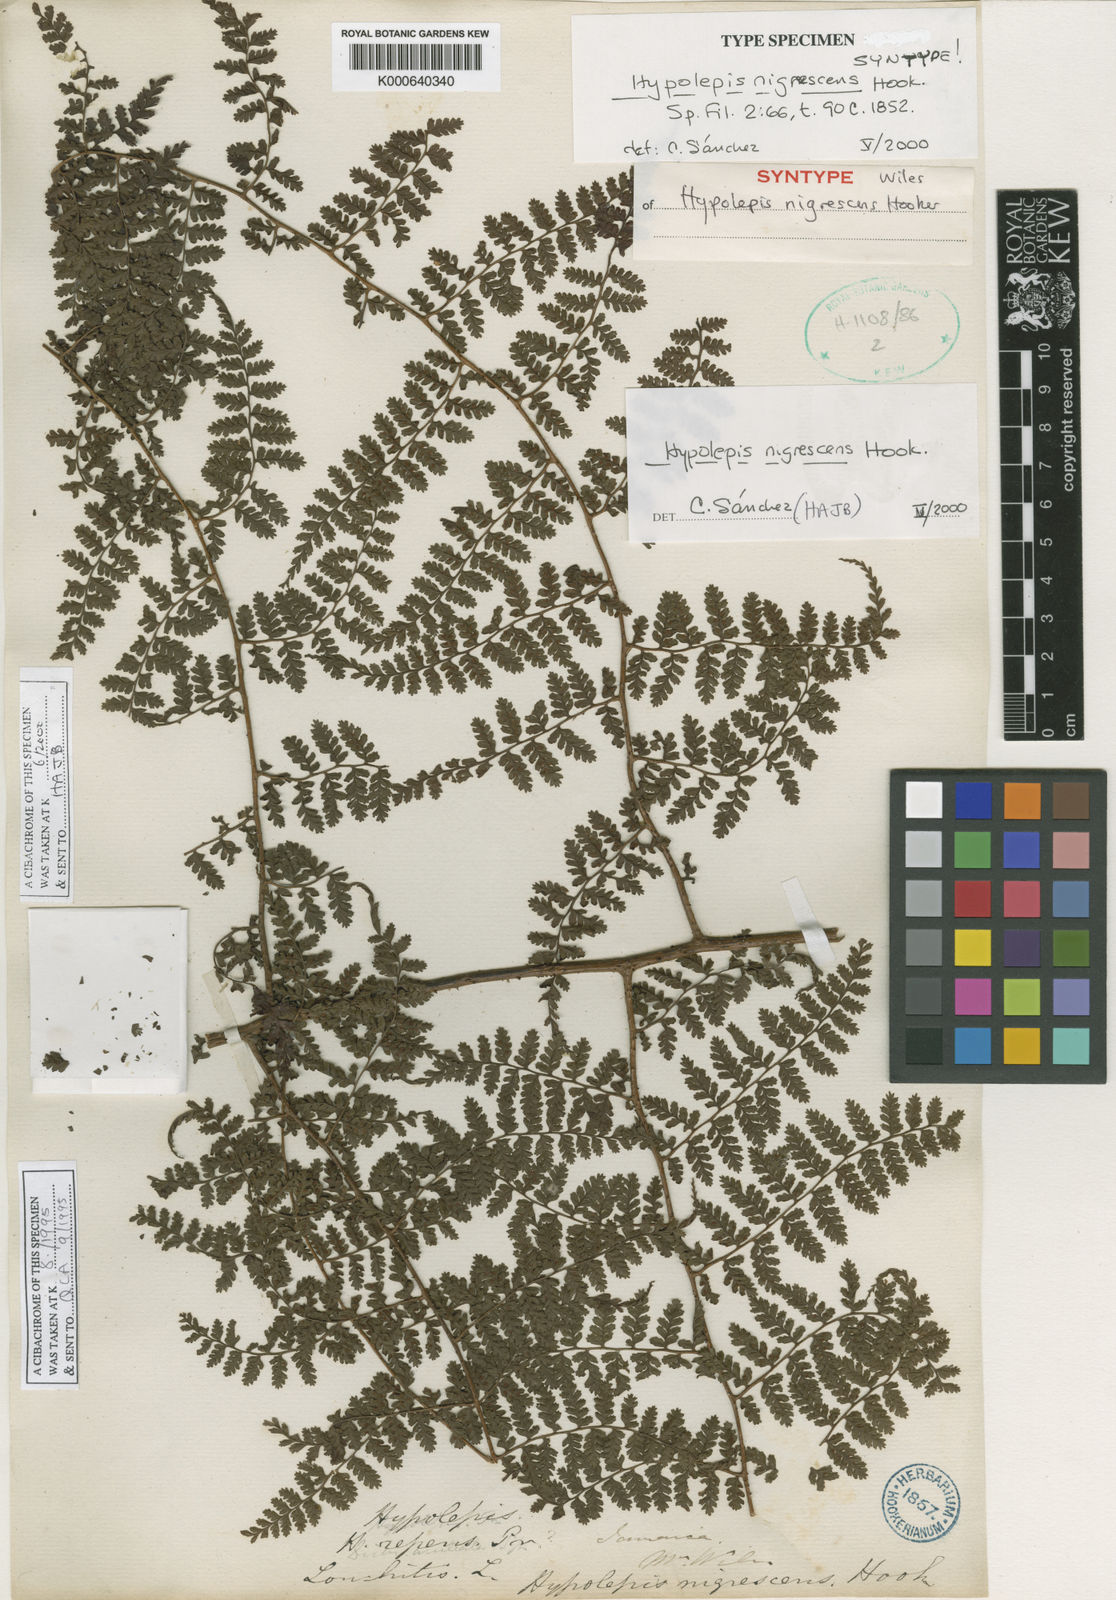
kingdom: Plantae
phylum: Tracheophyta
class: Polypodiopsida
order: Polypodiales
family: Dennstaedtiaceae
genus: Hiya
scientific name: Hiya nigrescens
